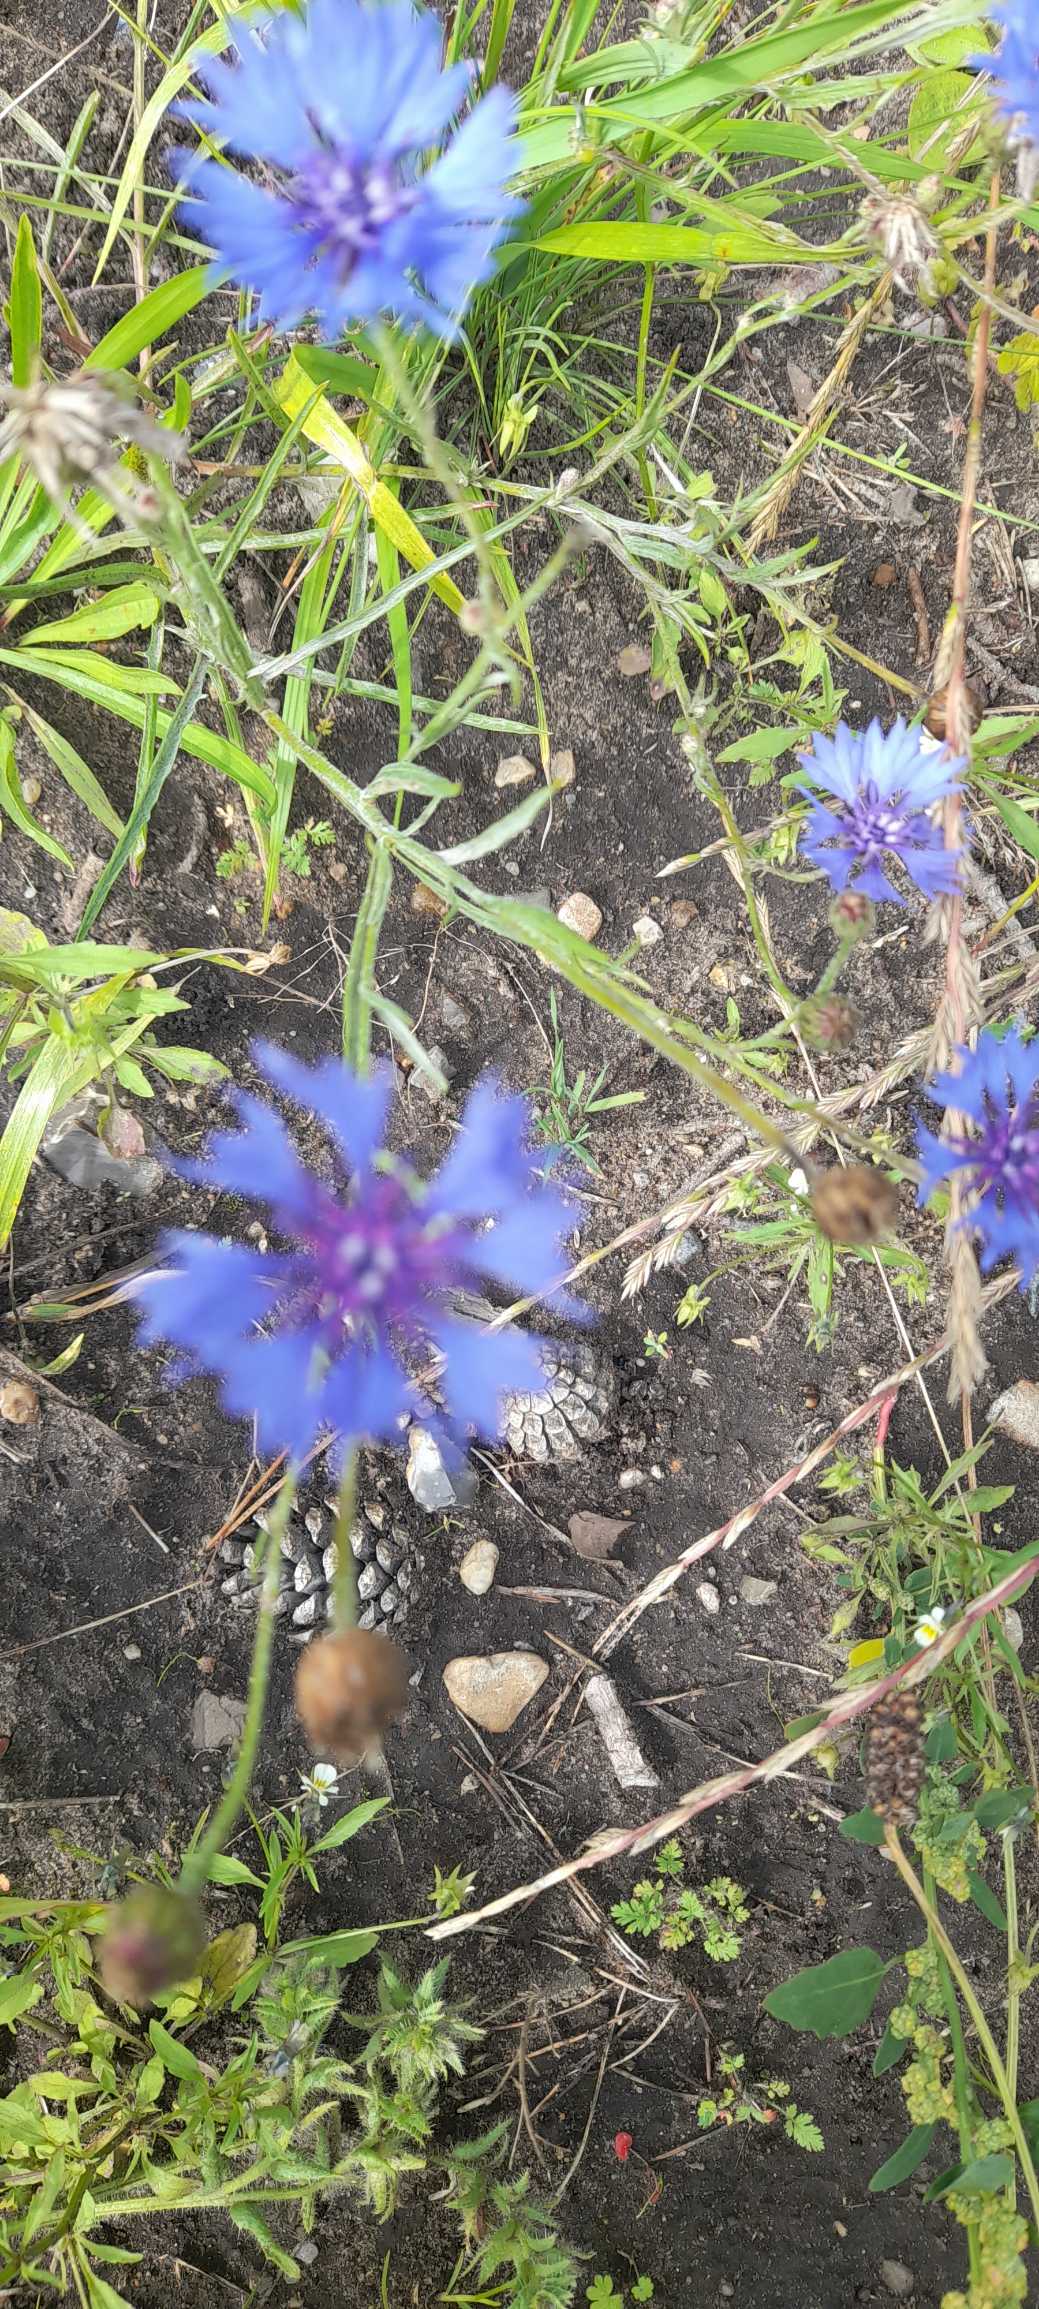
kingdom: Plantae
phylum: Tracheophyta
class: Magnoliopsida
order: Asterales
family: Asteraceae
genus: Centaurea
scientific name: Centaurea cyanus
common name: Kornblomst
